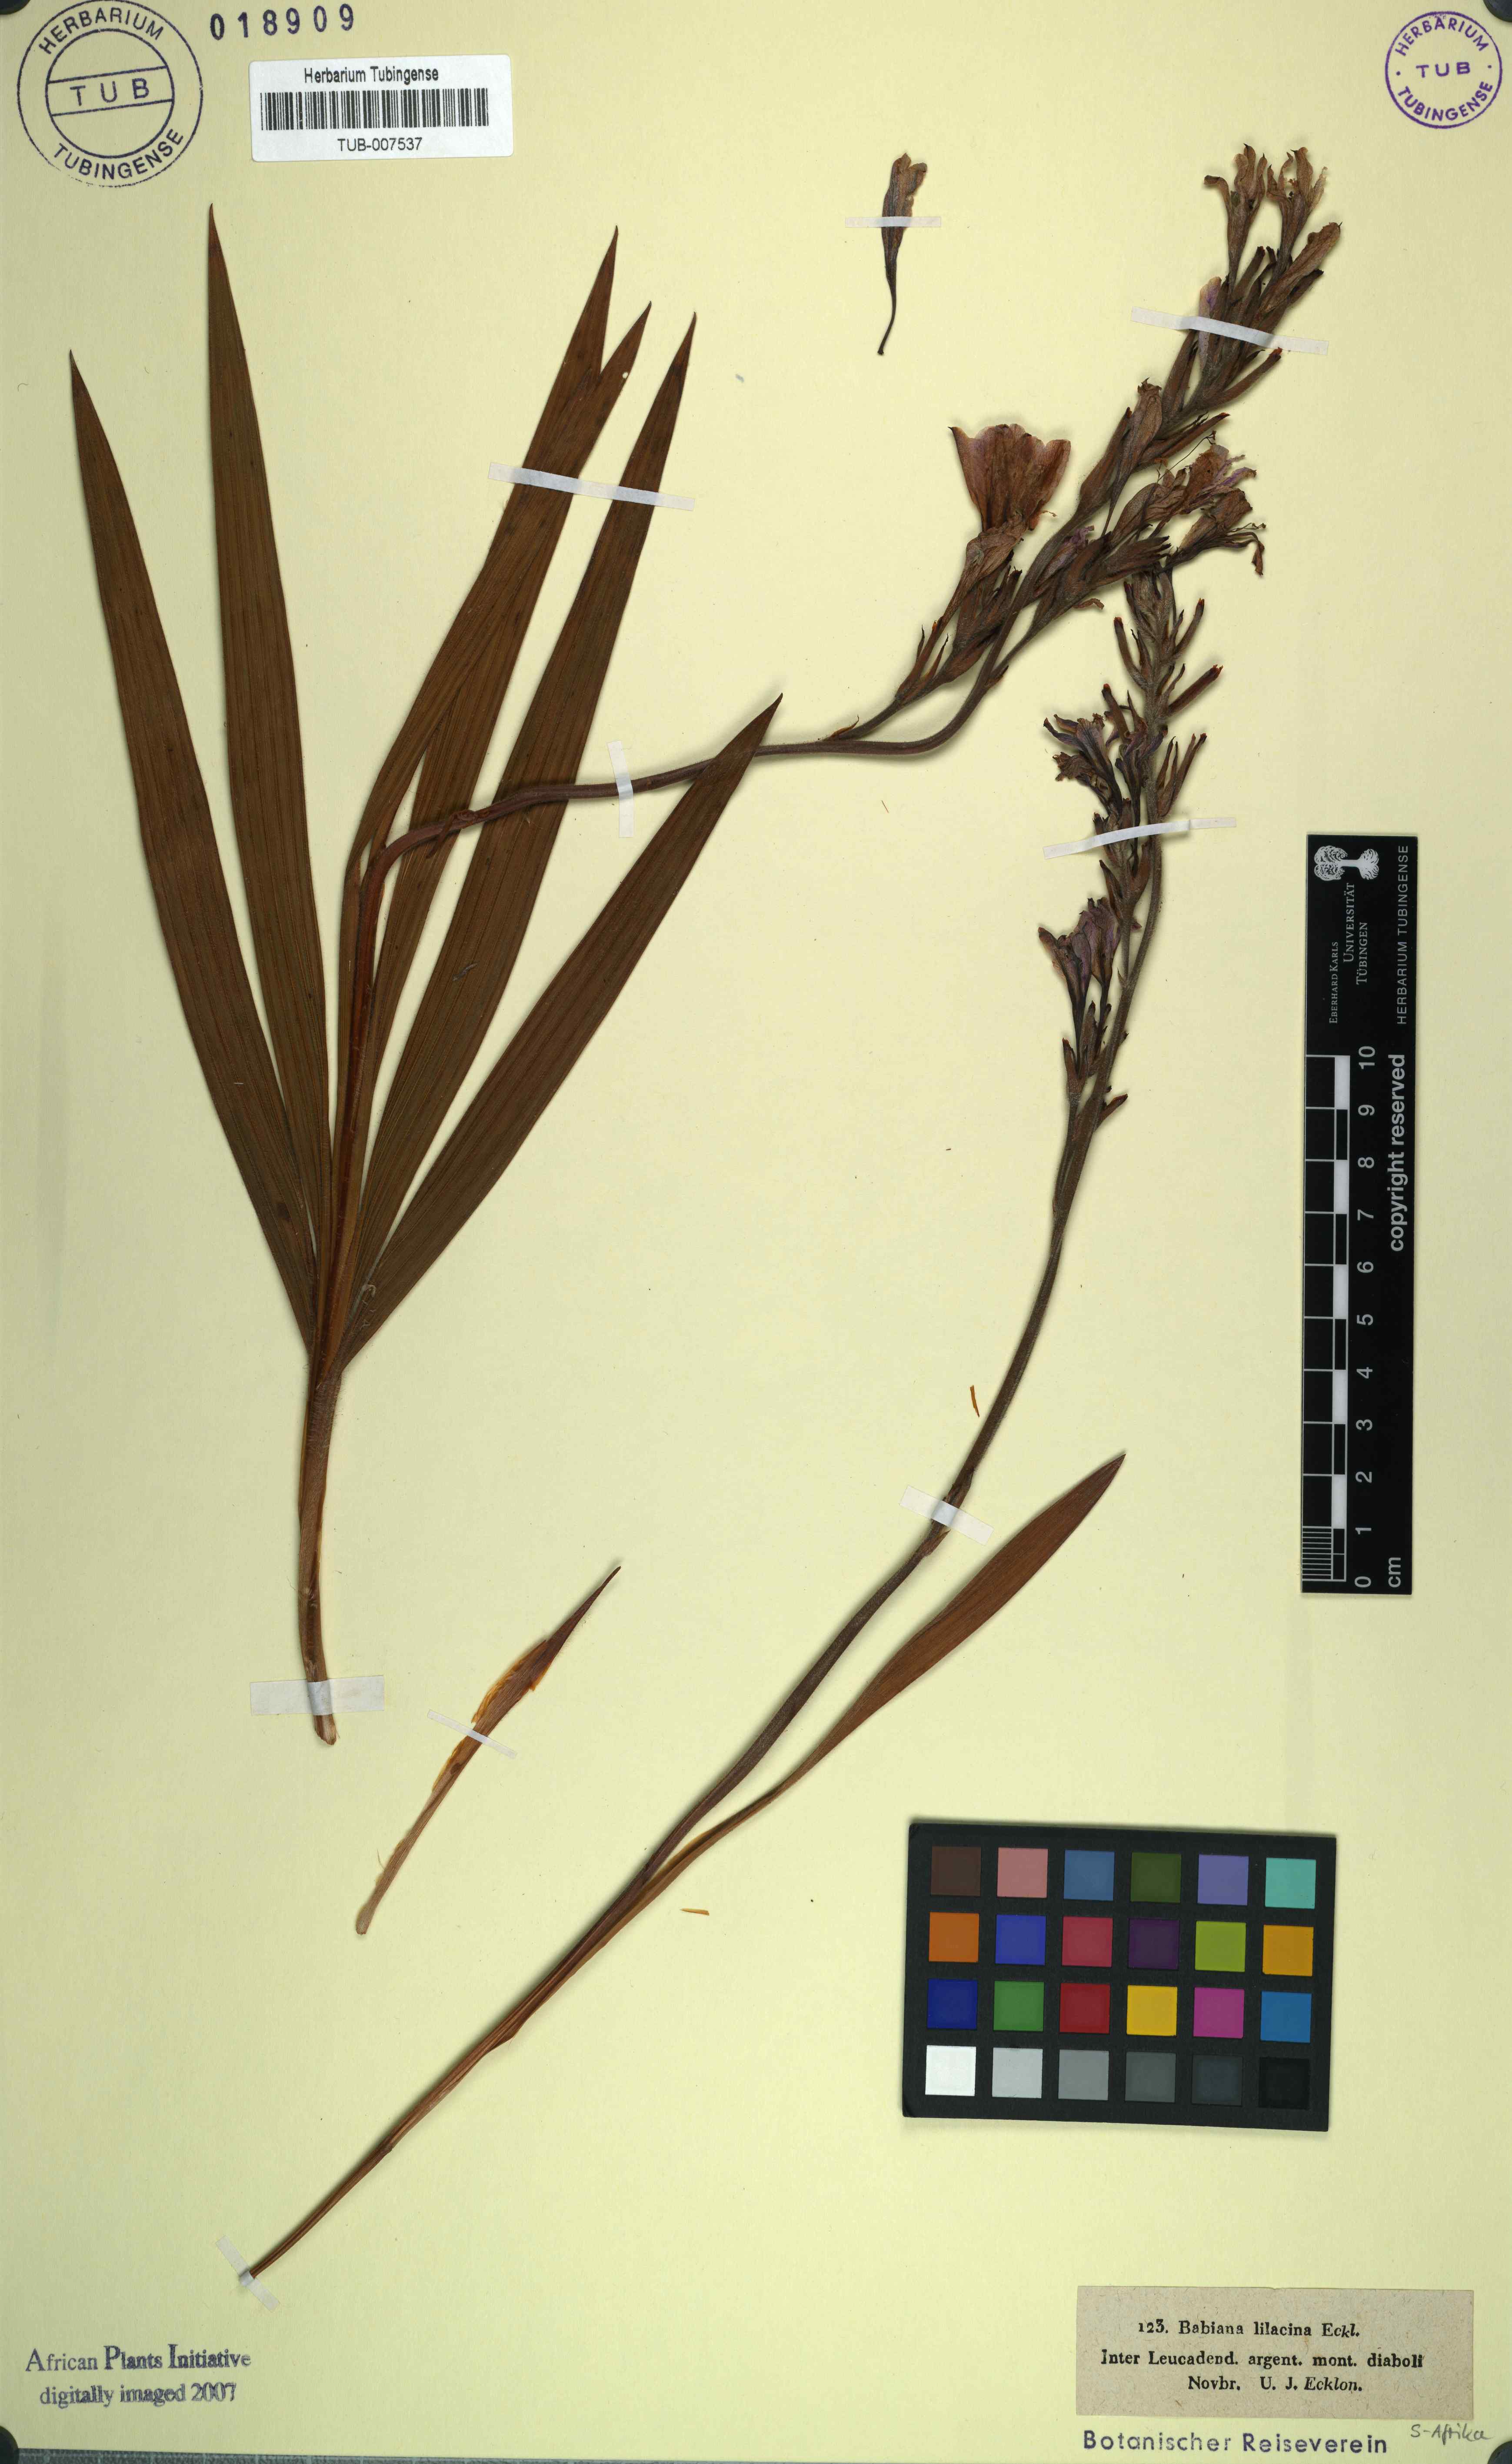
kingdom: Plantae
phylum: Tracheophyta
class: Liliopsida
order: Asparagales
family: Iridaceae
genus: Babiana
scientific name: Babiana fragrans
